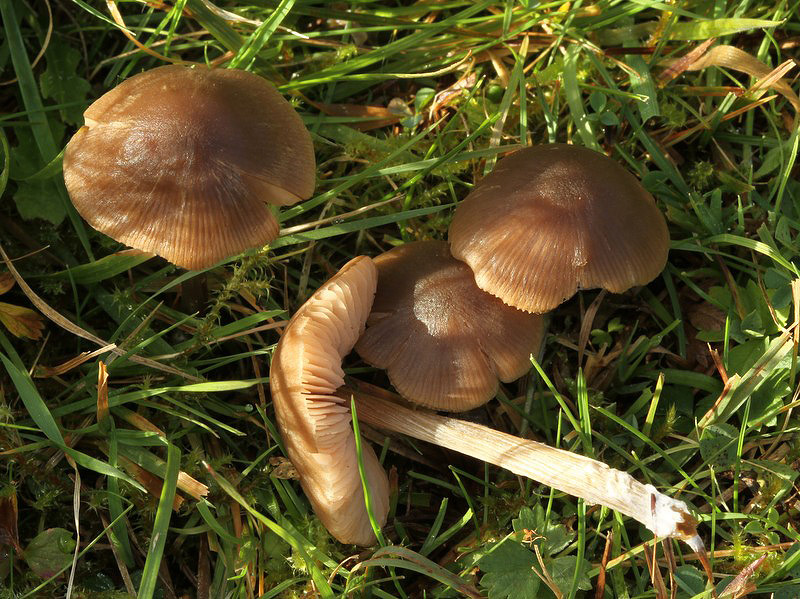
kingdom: Fungi
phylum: Basidiomycota
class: Agaricomycetes
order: Agaricales
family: Entolomataceae
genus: Entoloma
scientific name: Entoloma conferendum
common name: stjernesporet rødblad
